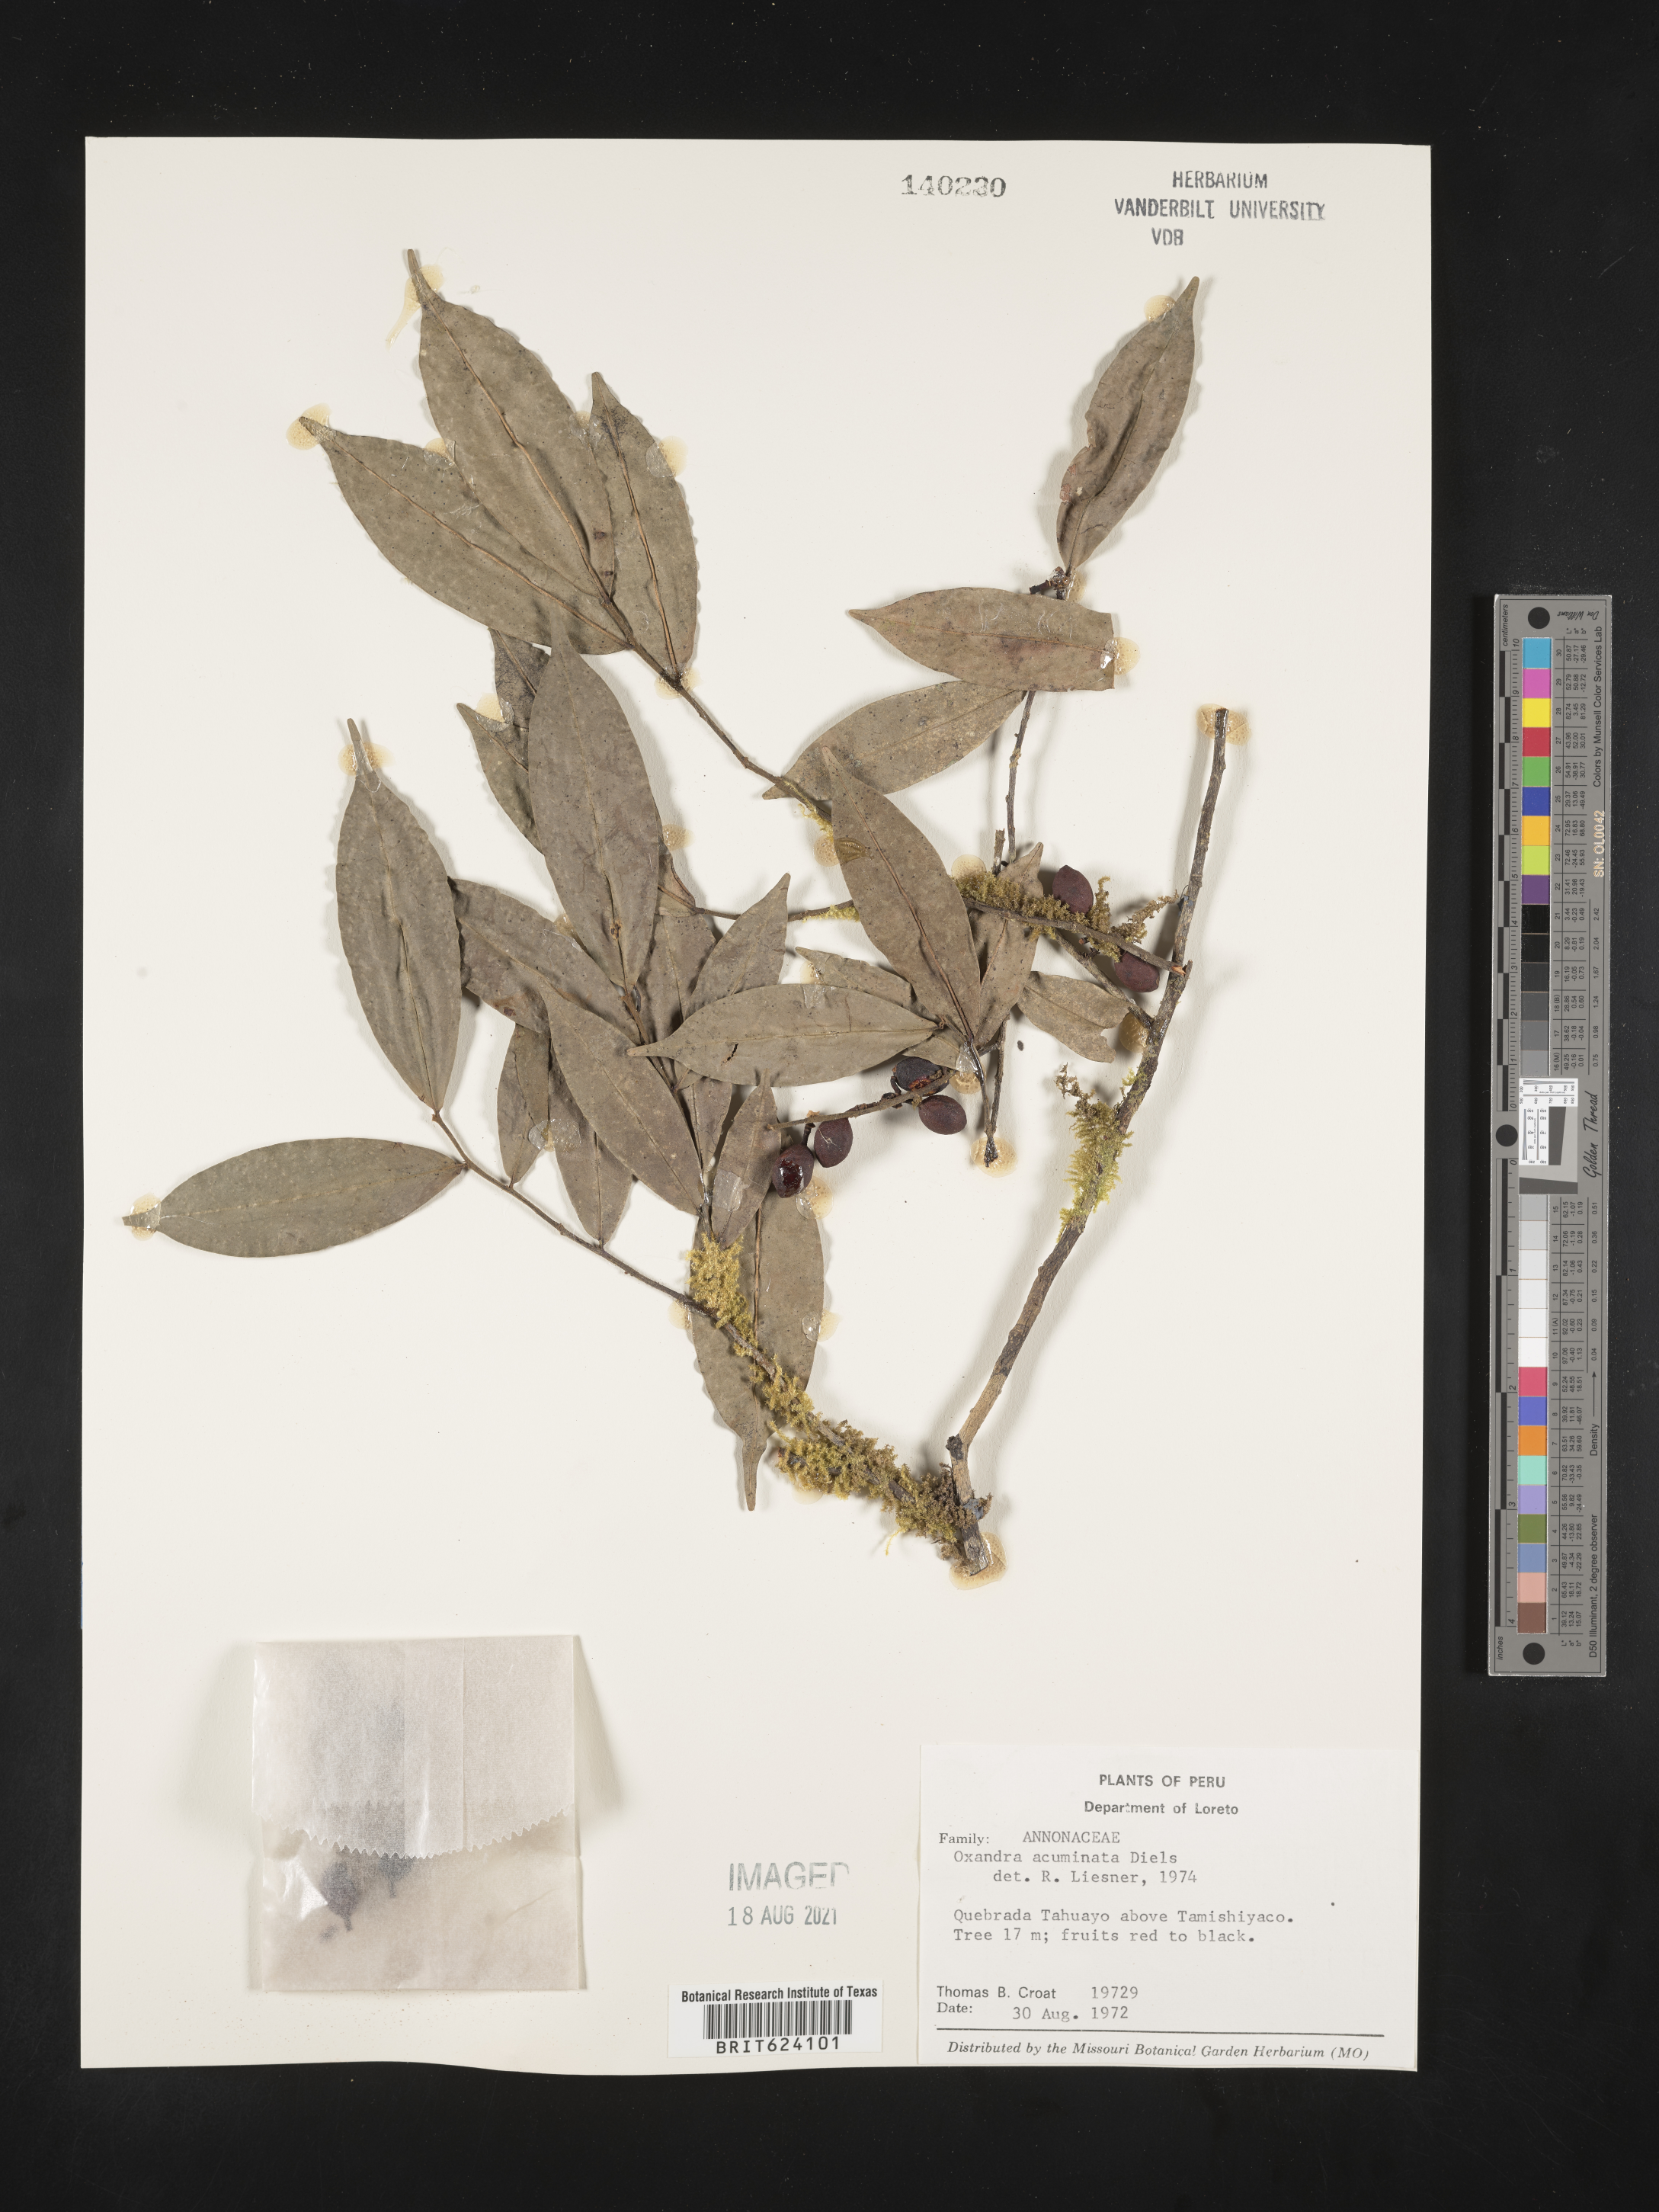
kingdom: Plantae
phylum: Tracheophyta
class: Magnoliopsida
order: Magnoliales
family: Annonaceae
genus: Oxandra
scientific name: Oxandra mediocris
